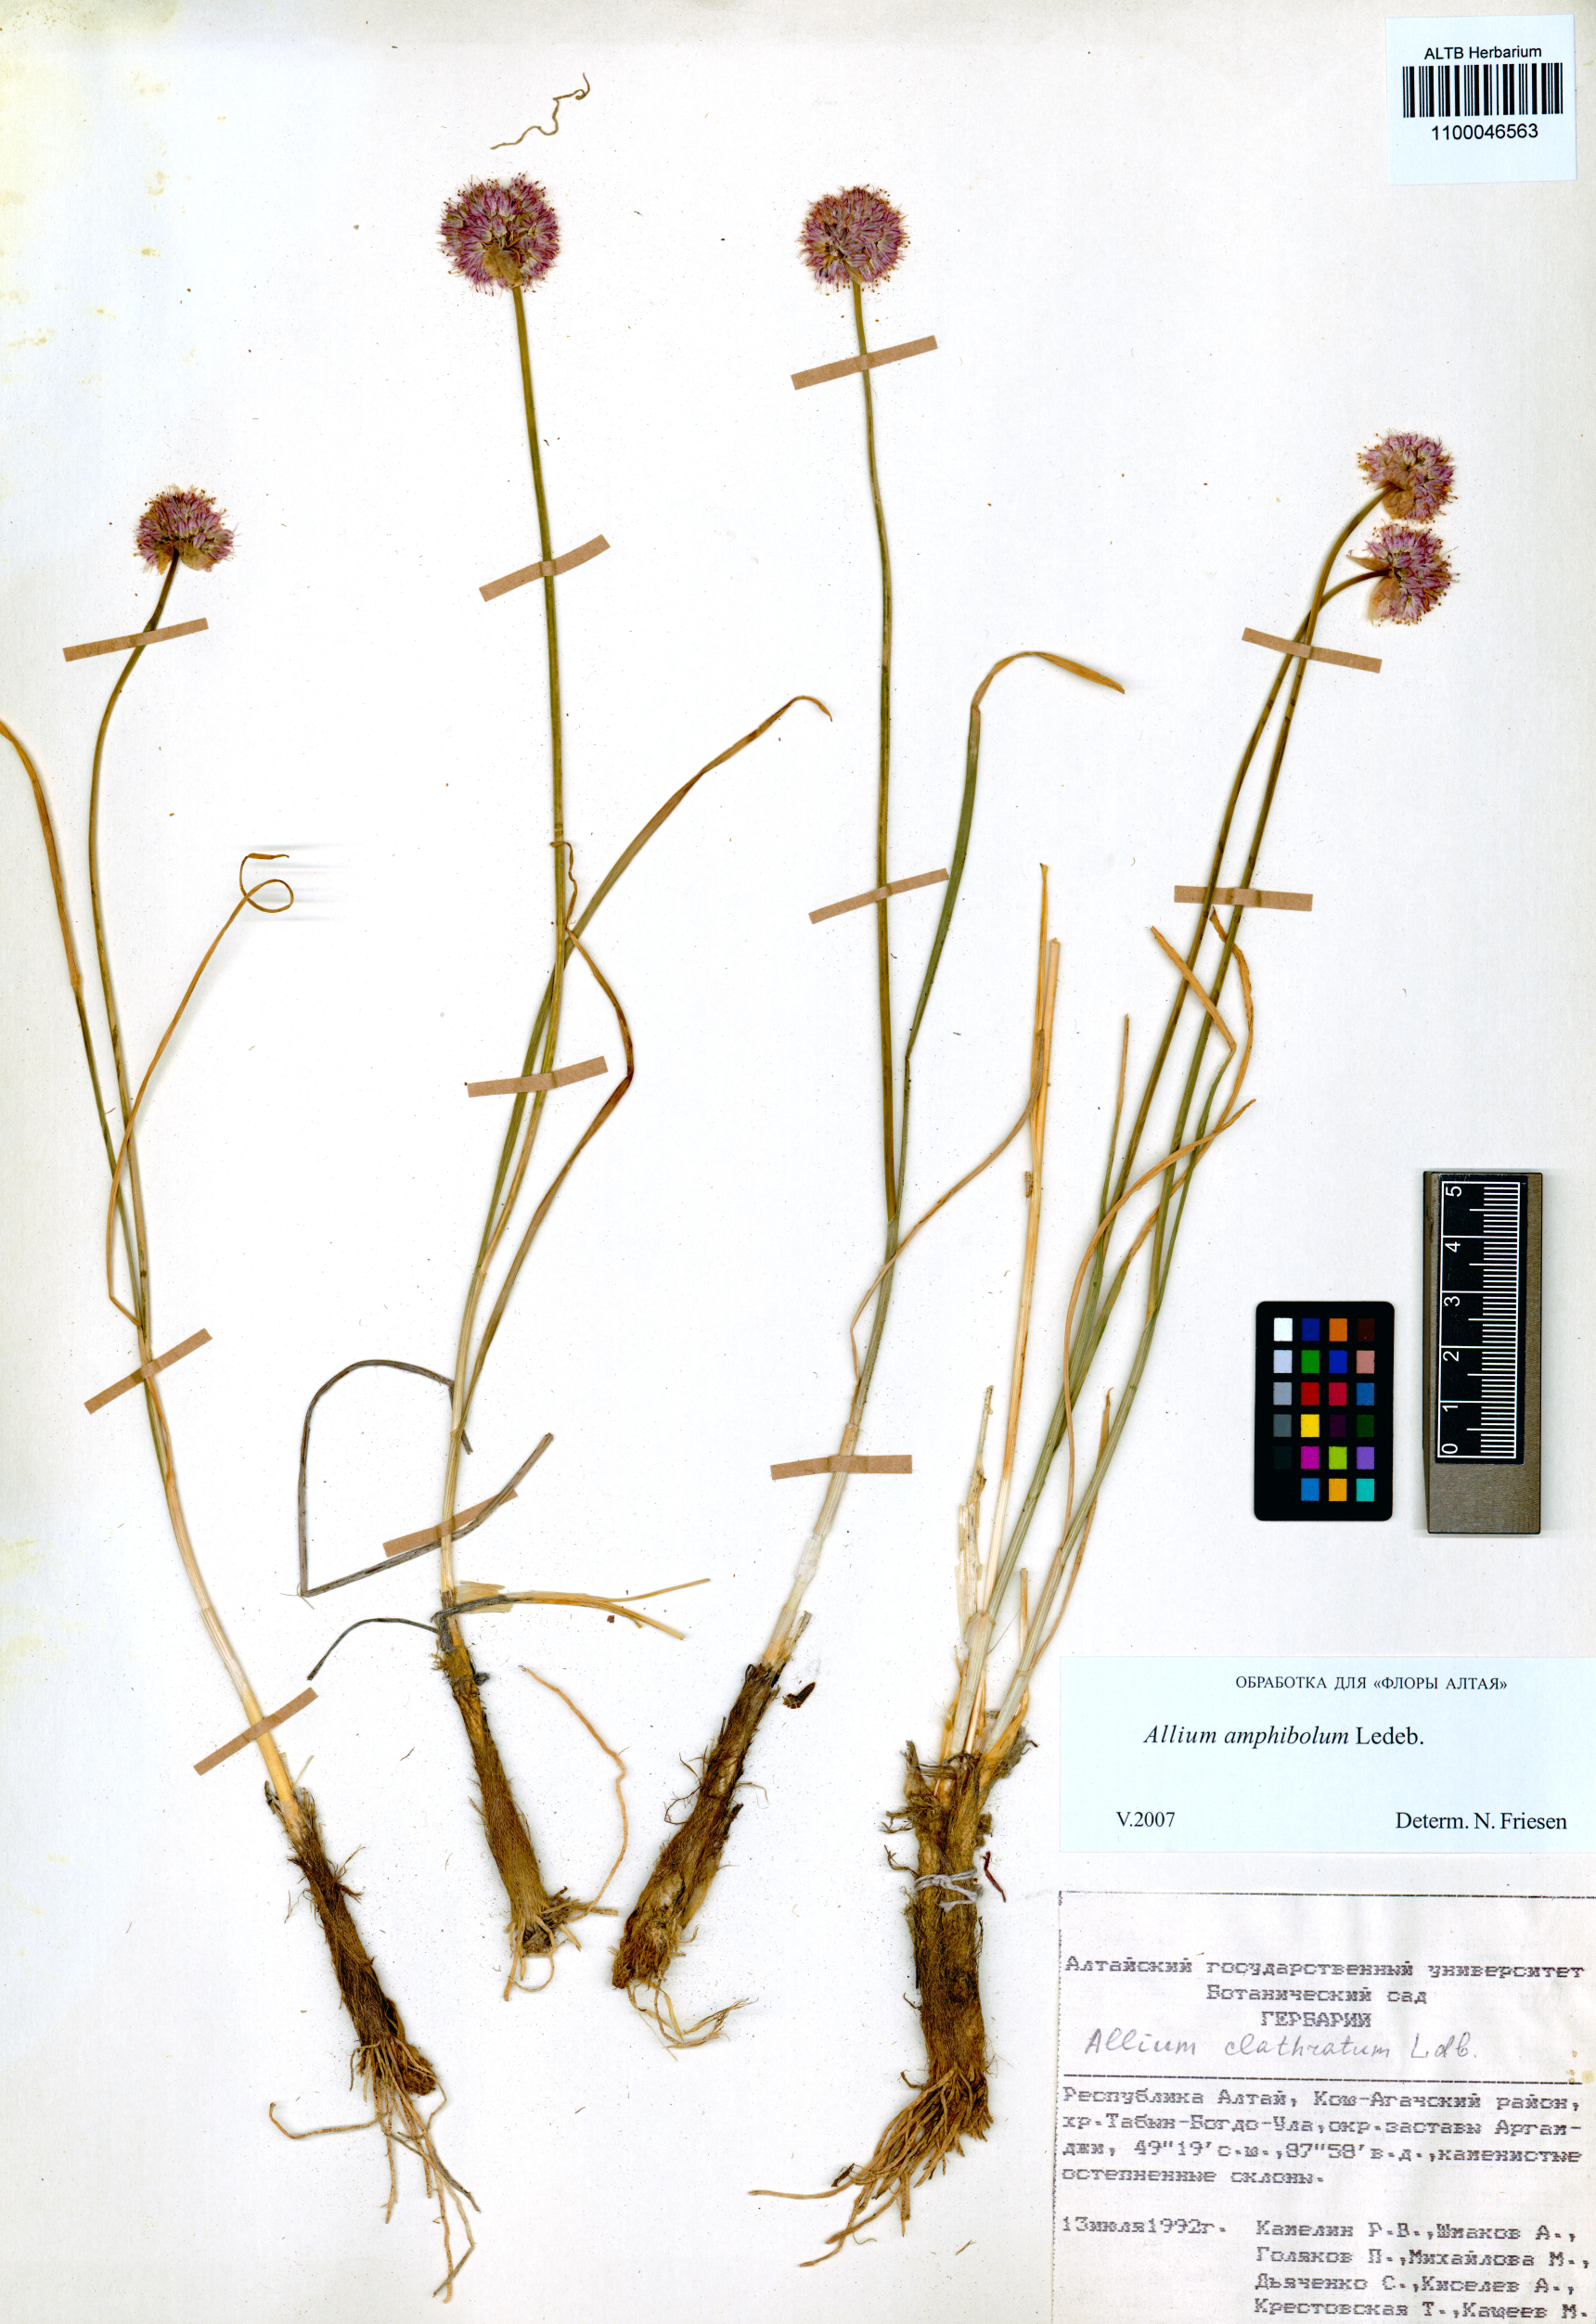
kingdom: Plantae
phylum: Tracheophyta
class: Liliopsida
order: Asparagales
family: Amaryllidaceae
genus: Allium
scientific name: Allium amphibolum
